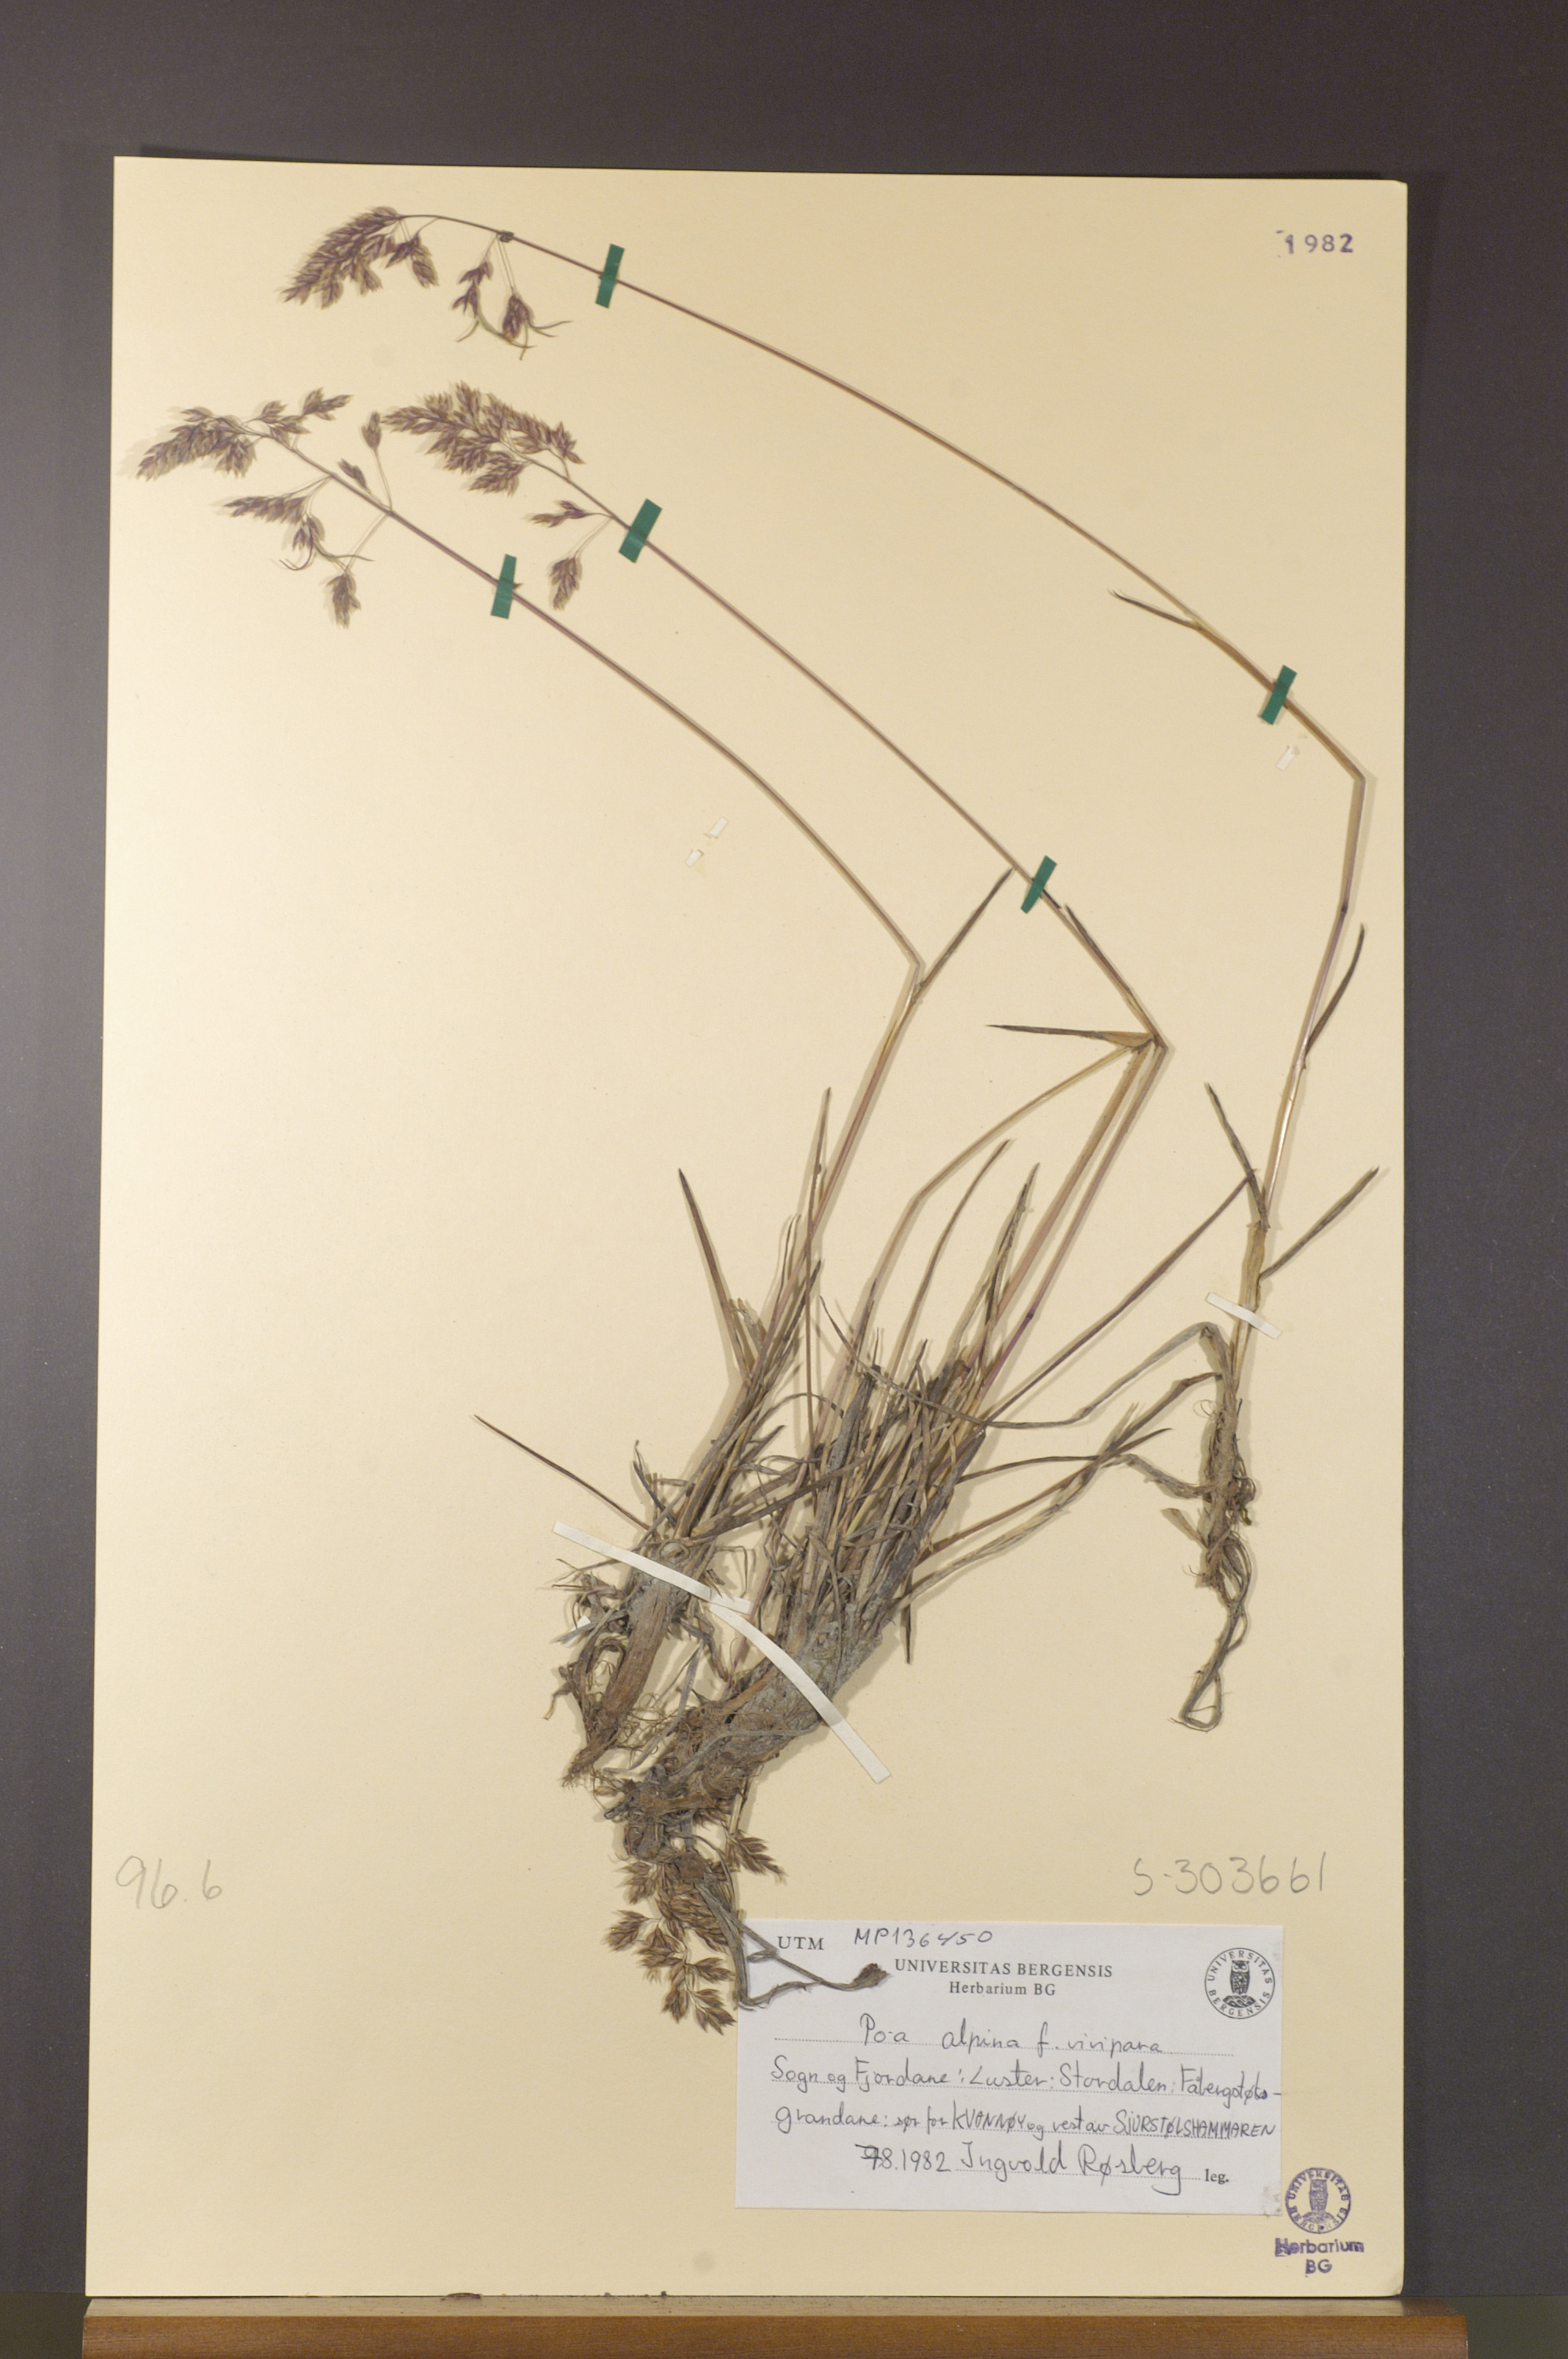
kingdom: Plantae
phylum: Tracheophyta
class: Liliopsida
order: Poales
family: Poaceae
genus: Poa
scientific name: Poa alpina
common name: Alpine bluegrass
